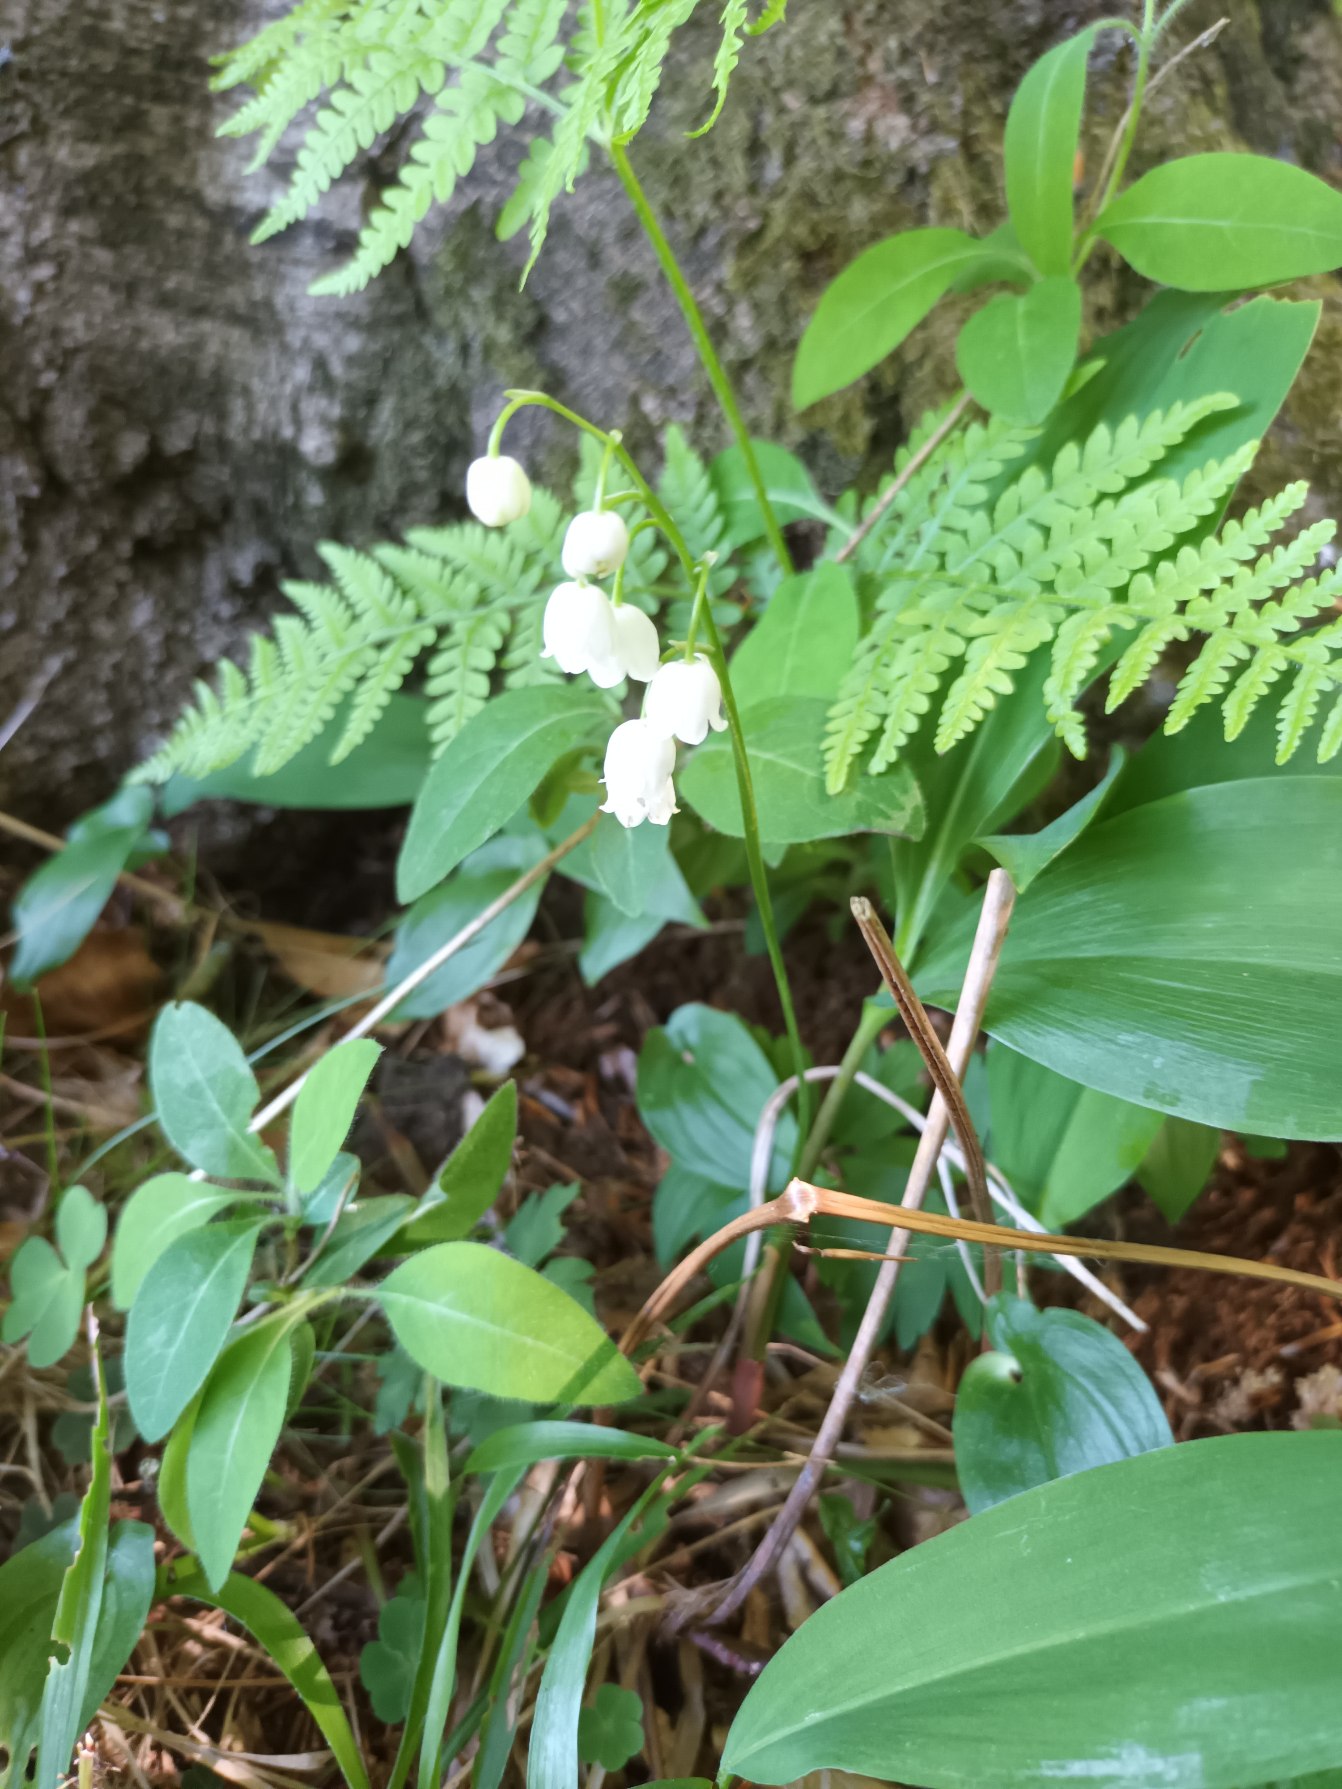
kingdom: Plantae
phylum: Tracheophyta
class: Liliopsida
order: Asparagales
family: Asparagaceae
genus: Convallaria
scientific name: Convallaria majalis
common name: Liljekonval
